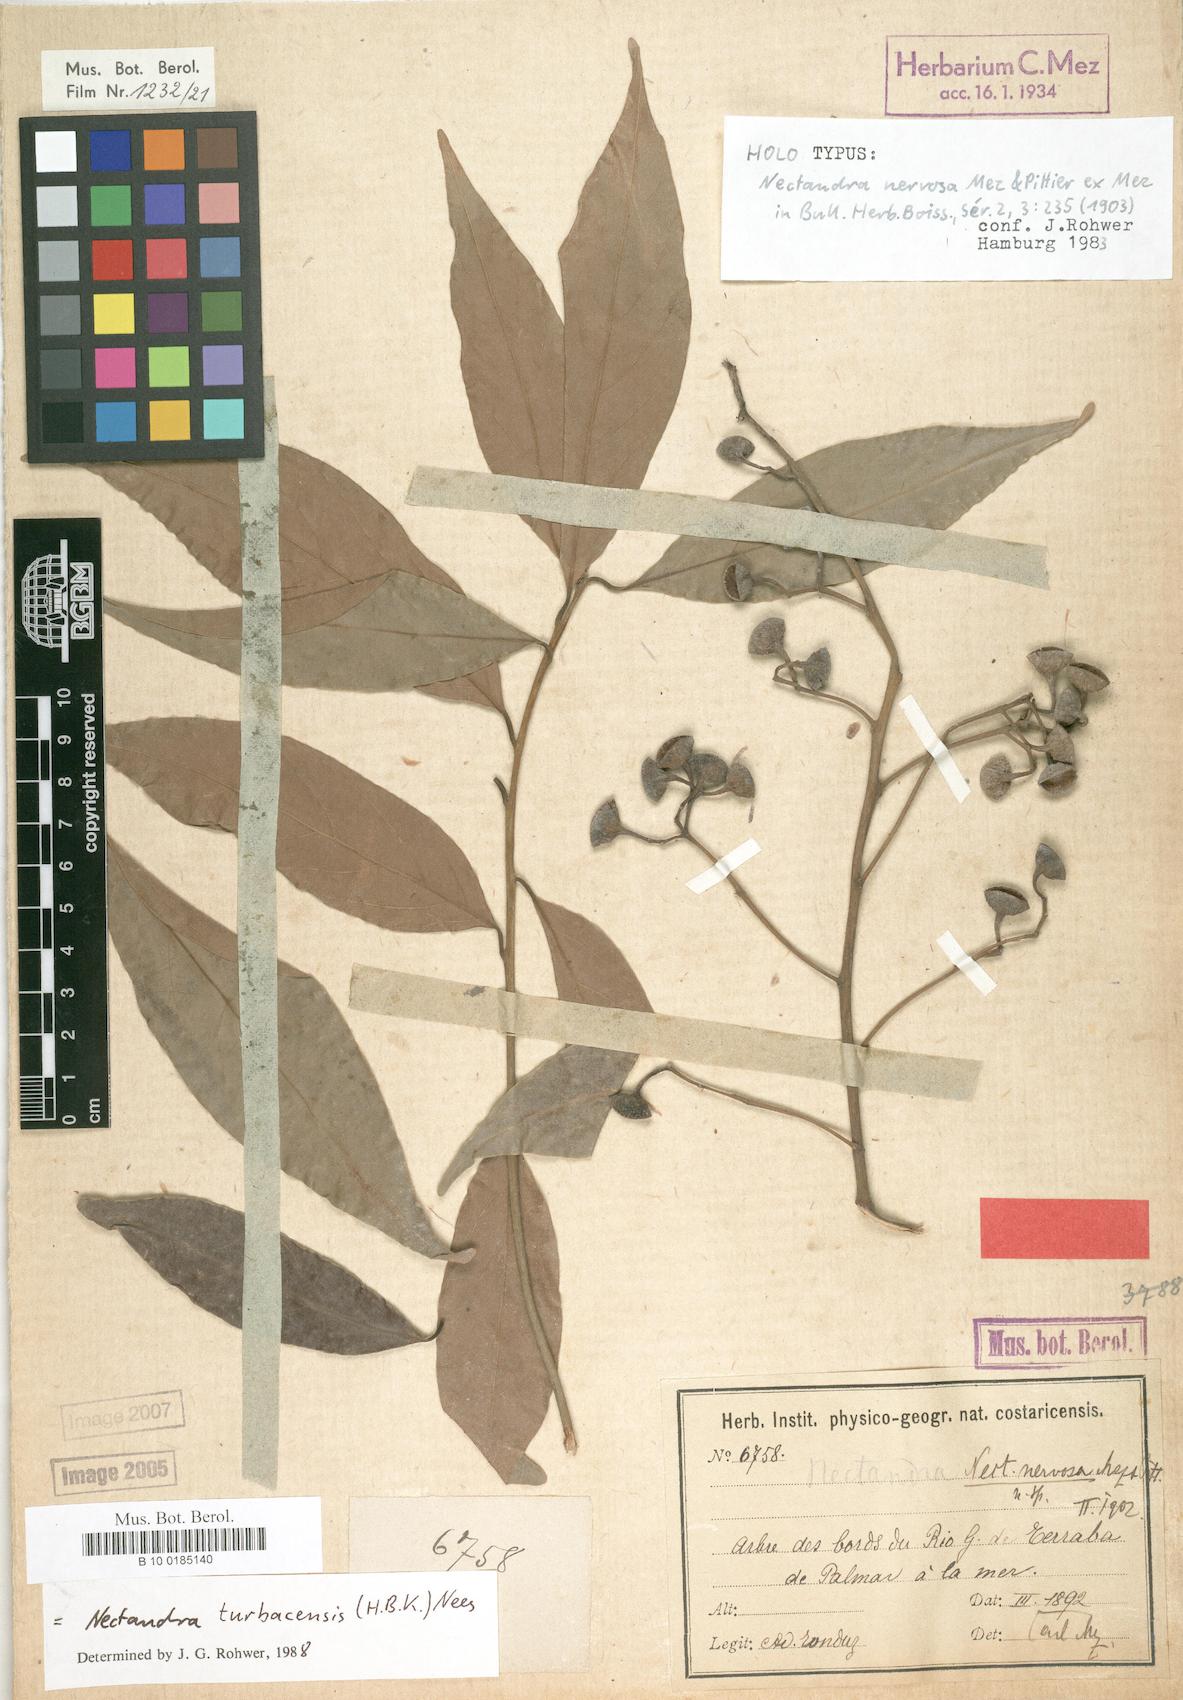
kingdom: Plantae
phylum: Tracheophyta
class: Magnoliopsida
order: Laurales
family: Lauraceae
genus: Nectandra
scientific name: Nectandra turbacensis
